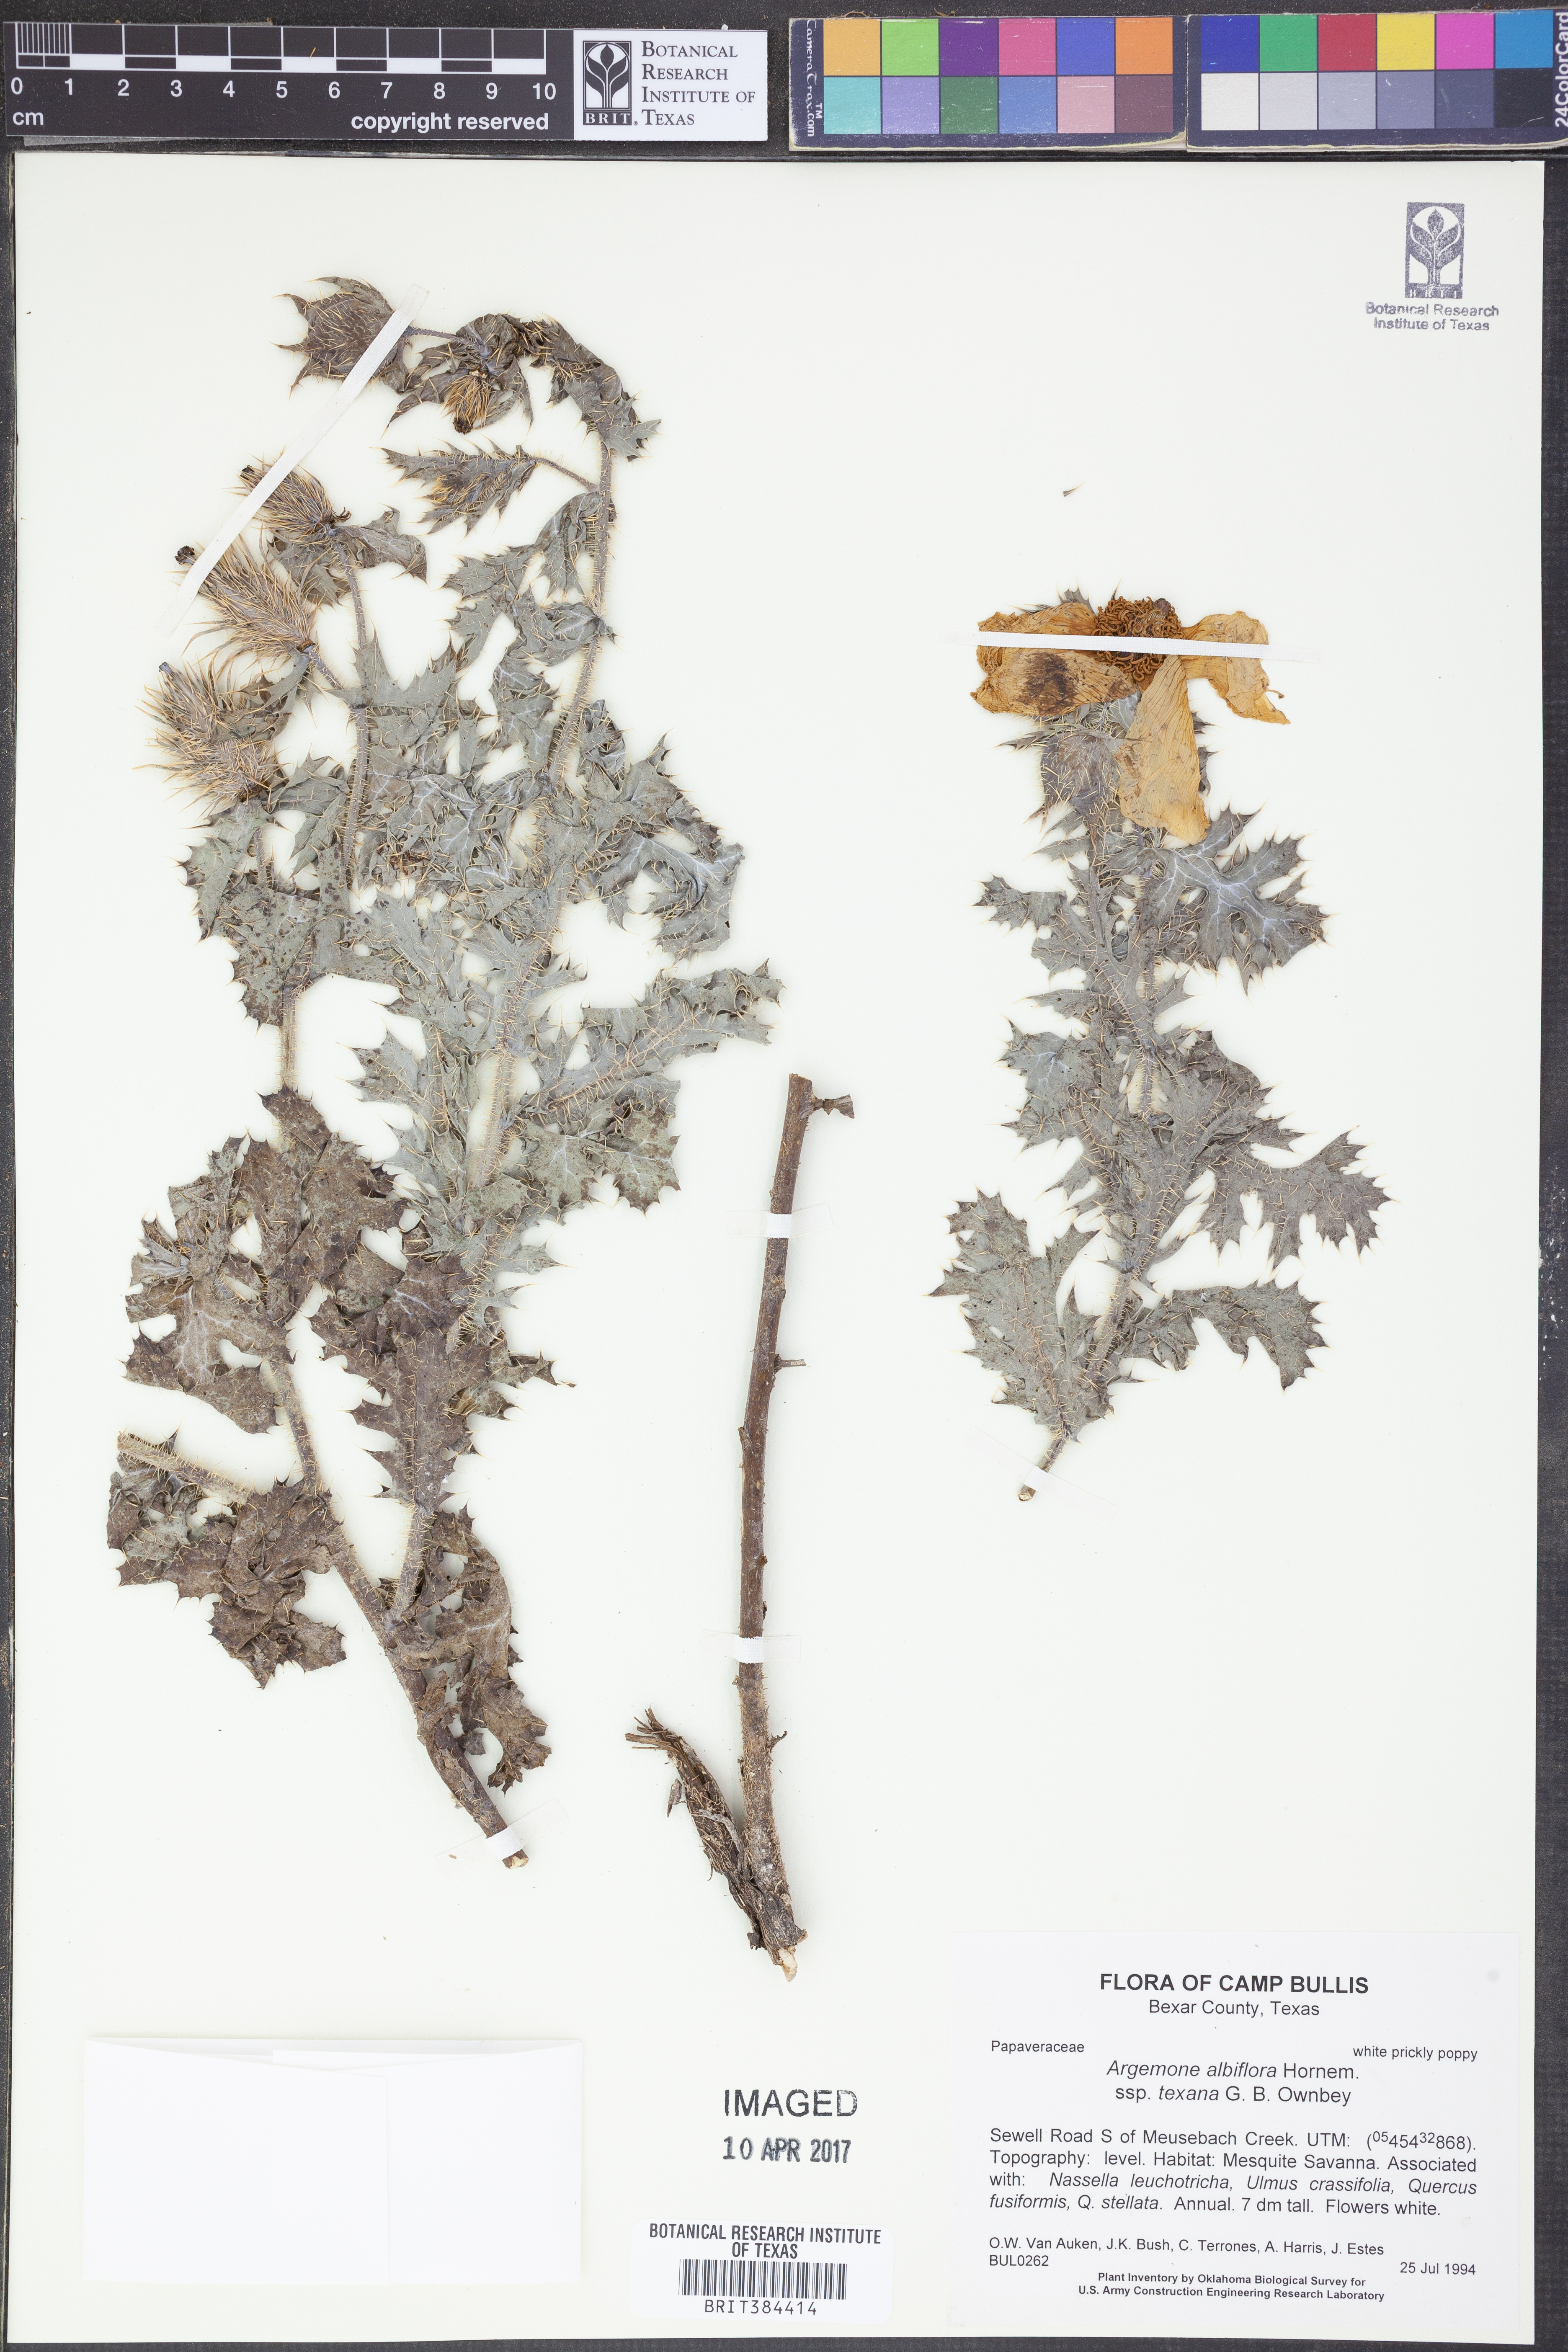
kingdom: Plantae
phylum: Tracheophyta
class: Magnoliopsida
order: Ranunculales
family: Papaveraceae
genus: Argemone
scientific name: Argemone albiflora
